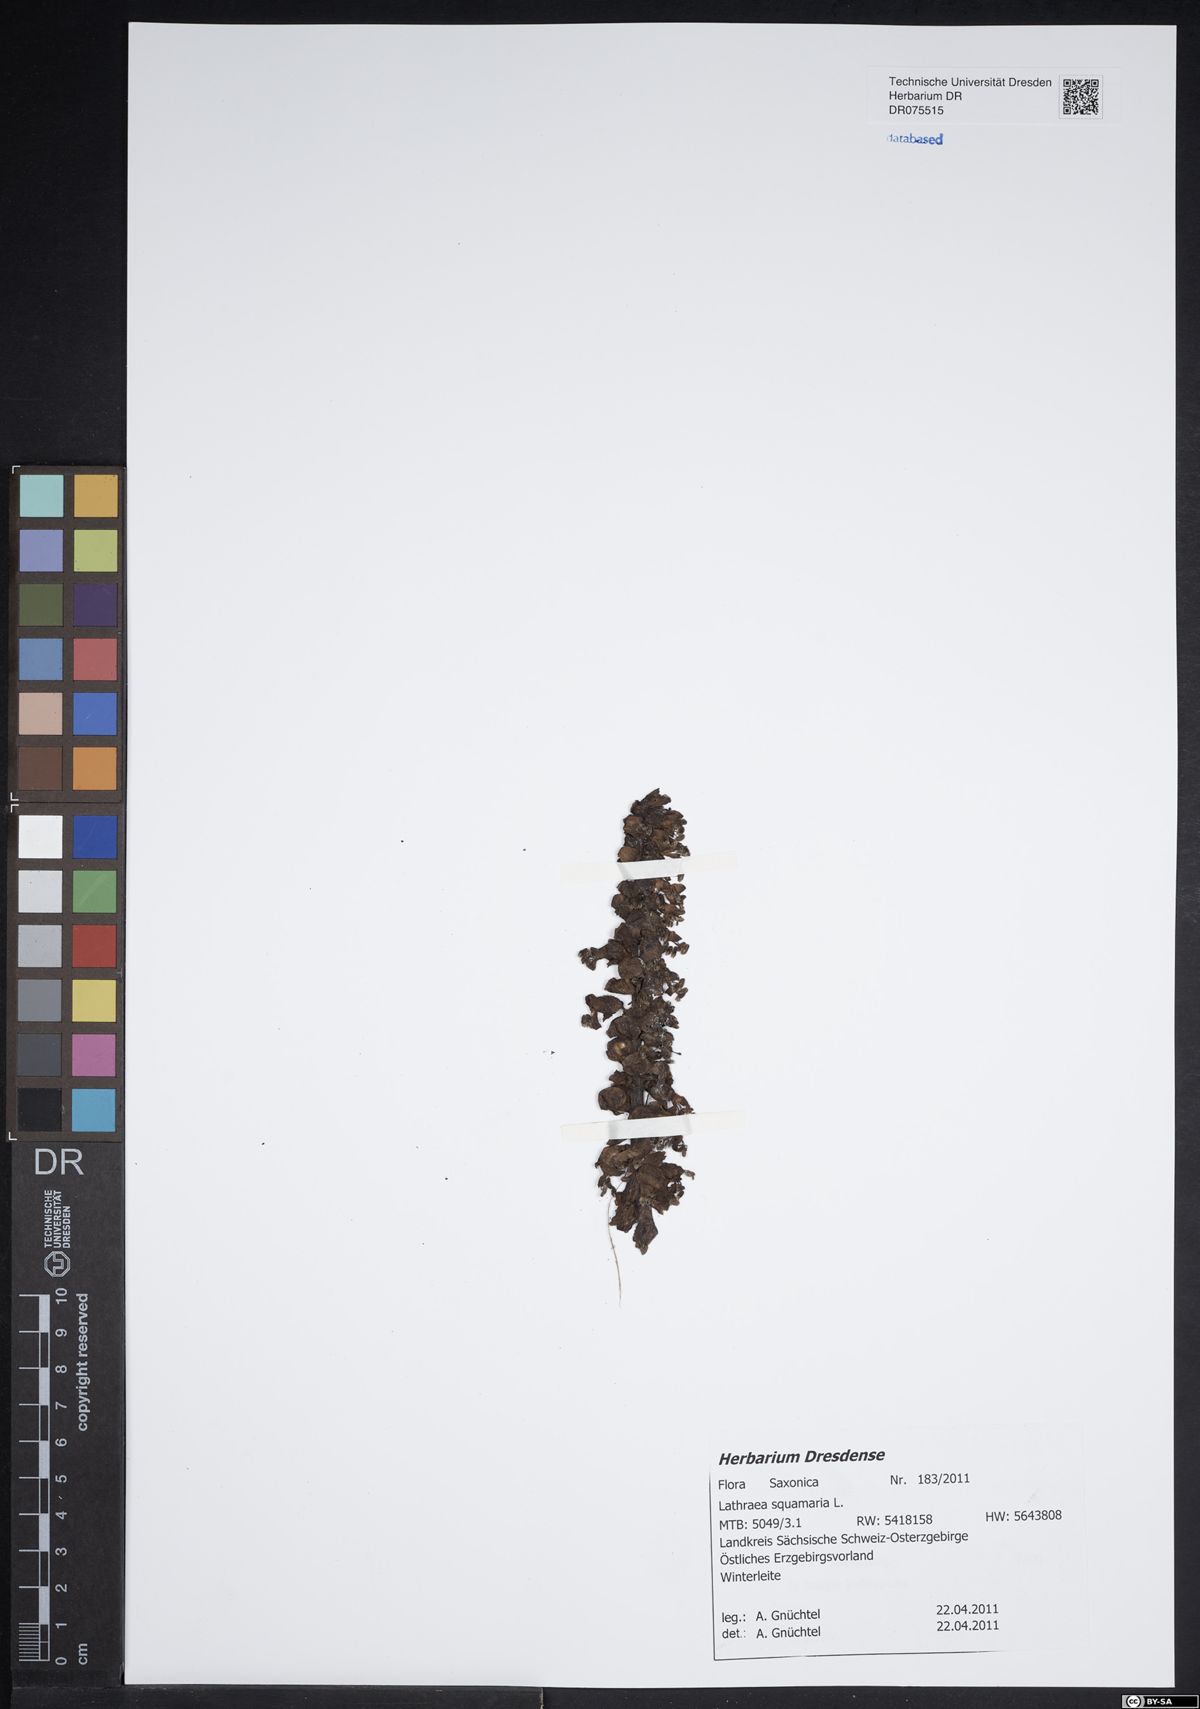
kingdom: Plantae
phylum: Tracheophyta
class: Magnoliopsida
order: Lamiales
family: Orobanchaceae
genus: Lathraea
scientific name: Lathraea squamaria
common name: Toothwort
